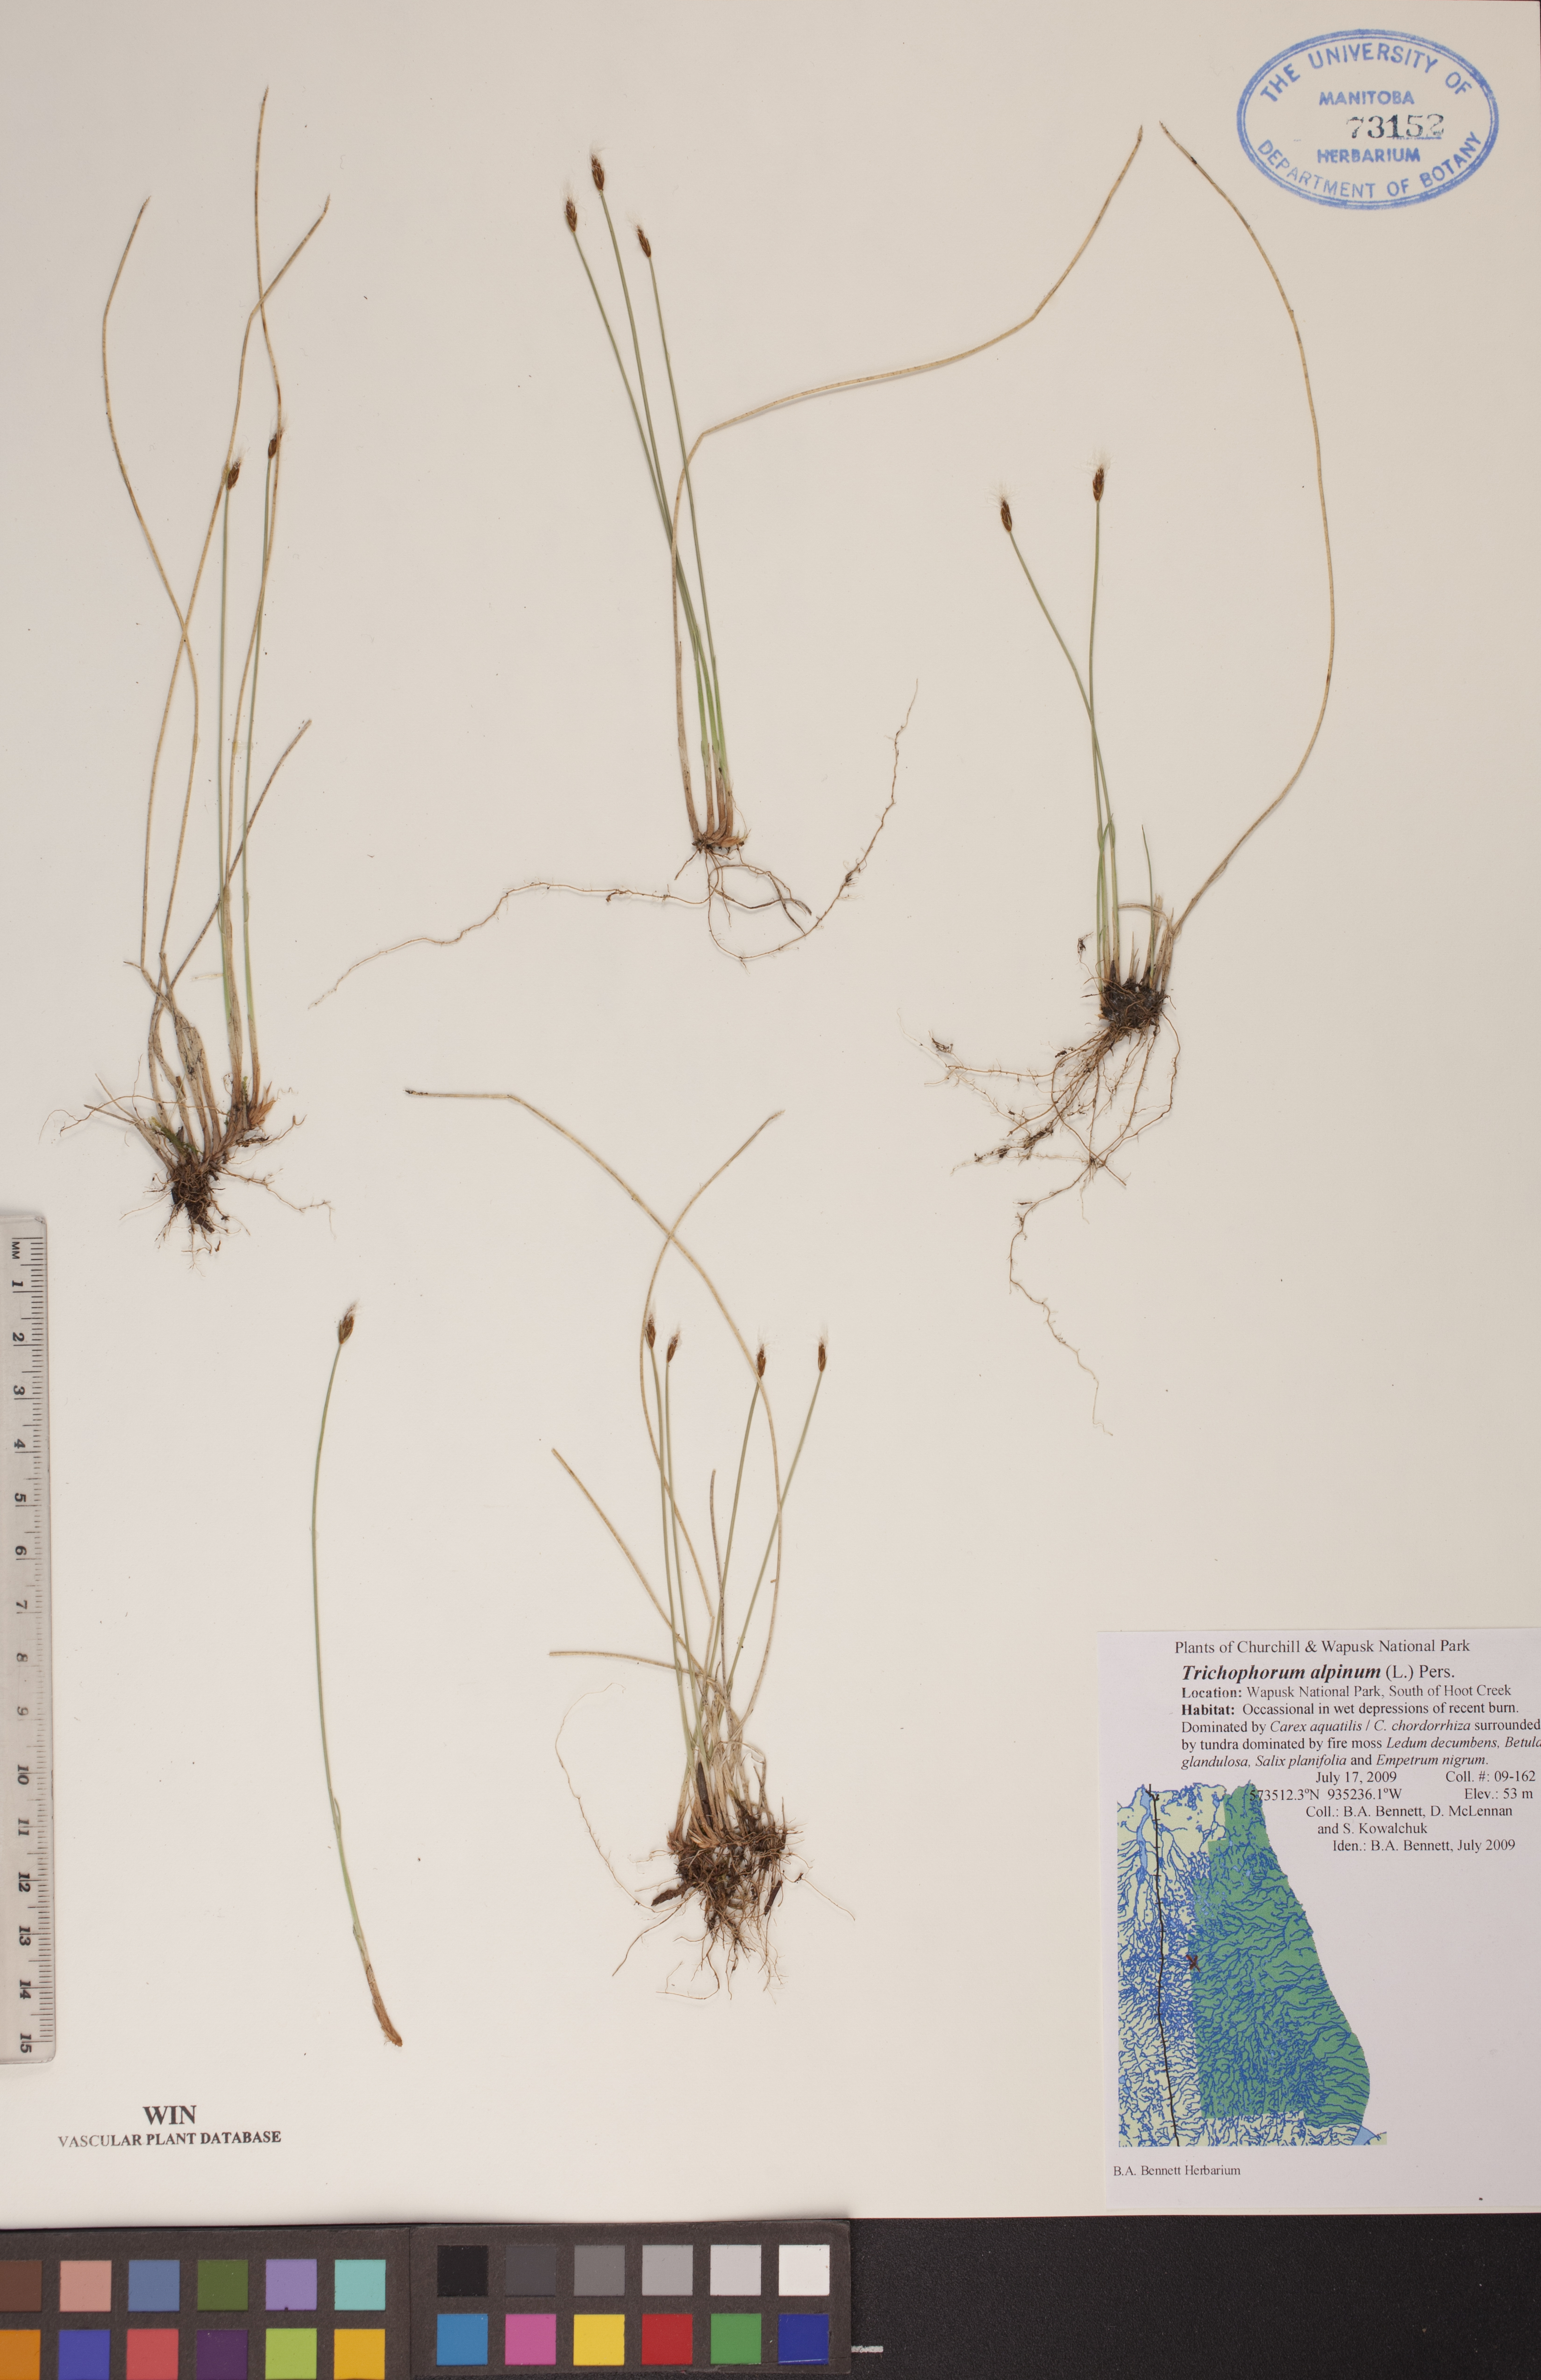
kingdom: Plantae
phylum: Tracheophyta
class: Liliopsida
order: Poales
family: Cyperaceae
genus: Trichophorum
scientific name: Trichophorum alpinum
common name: Alpine bulrush
